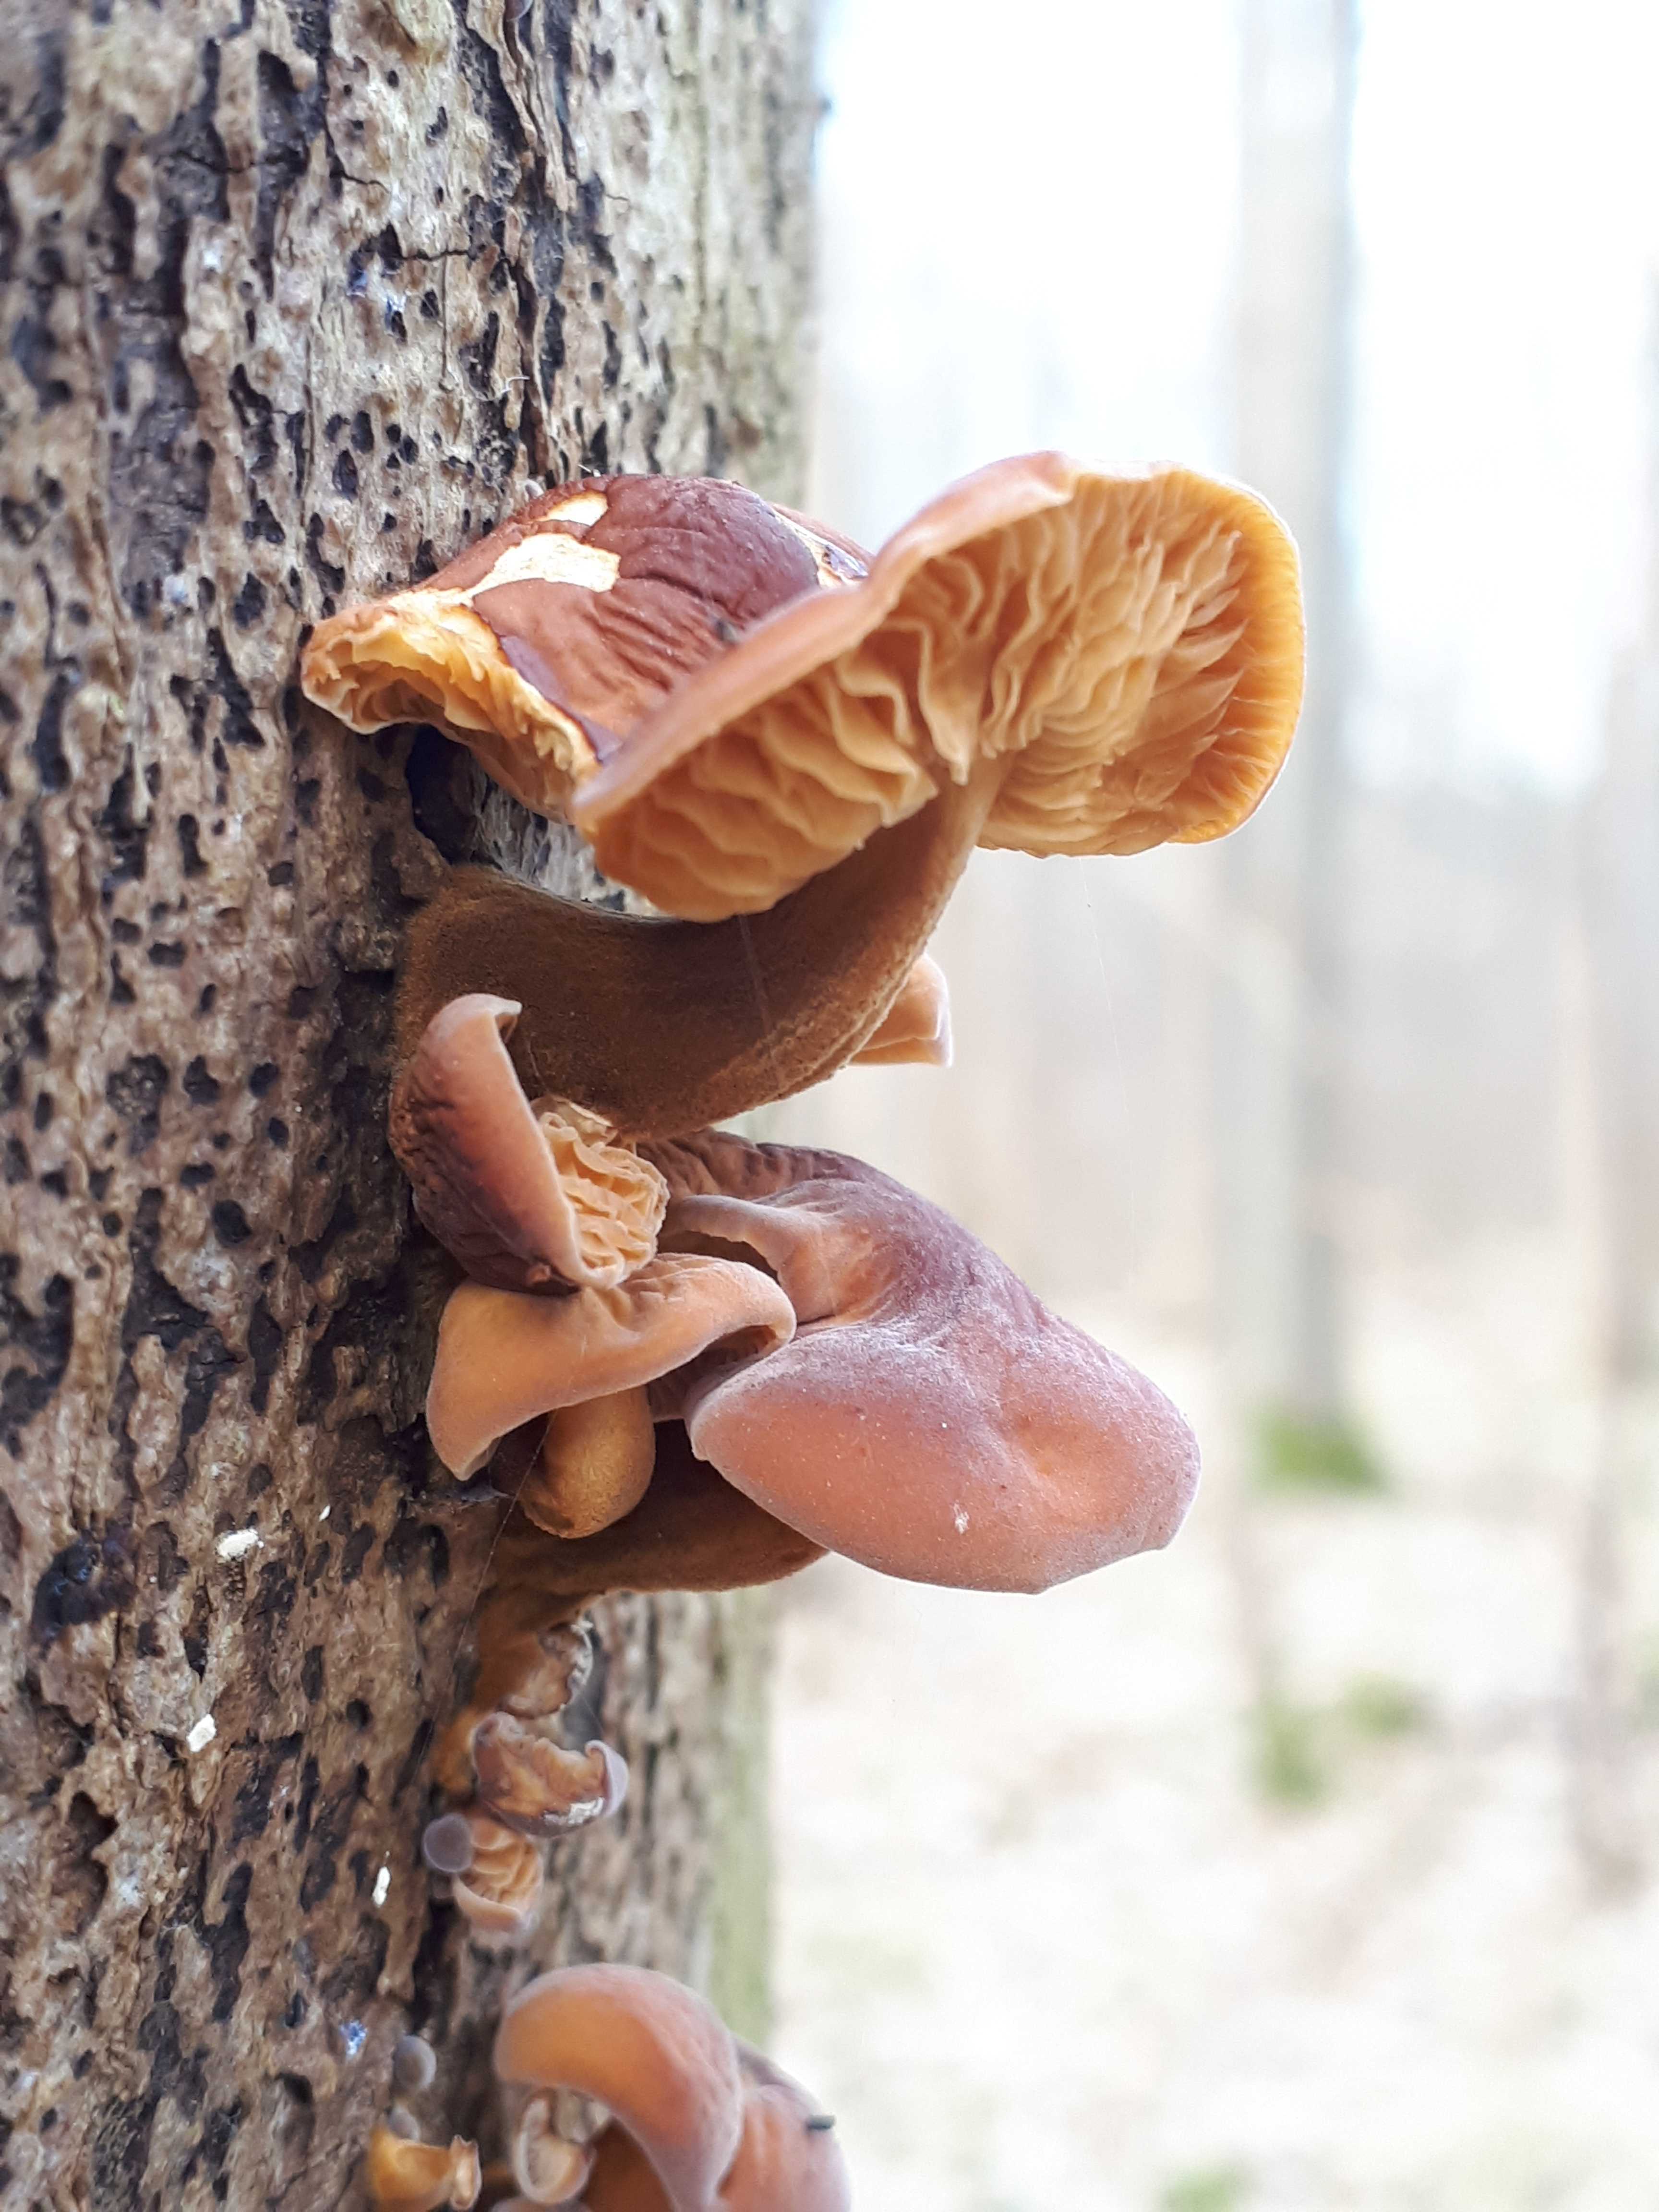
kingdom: Fungi
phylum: Basidiomycota
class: Agaricomycetes
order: Agaricales
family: Physalacriaceae
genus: Flammulina
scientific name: Flammulina velutipes
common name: gul fløjlsfod
